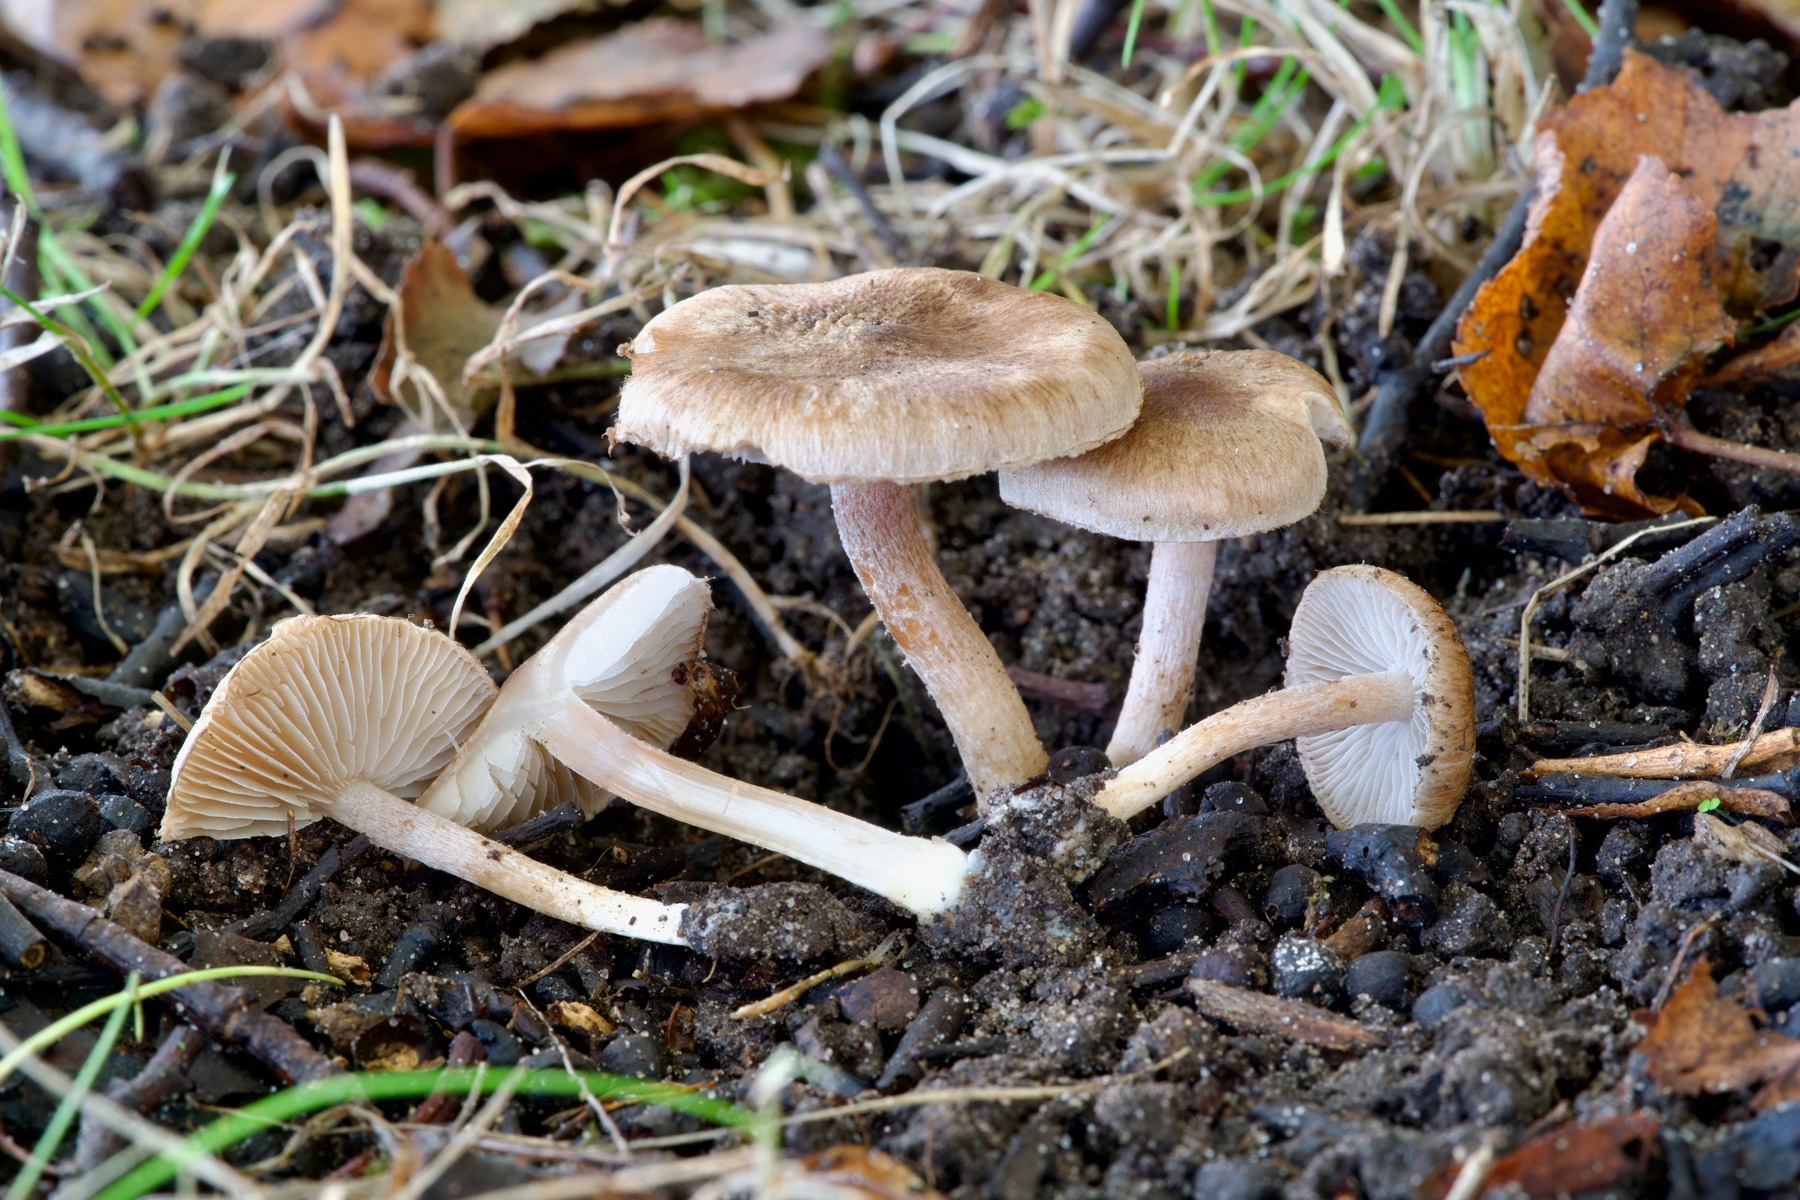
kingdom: Fungi
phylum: Basidiomycota
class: Agaricomycetes
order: Agaricales
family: Inocybaceae
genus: Inocybe
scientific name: Inocybe tigrina
